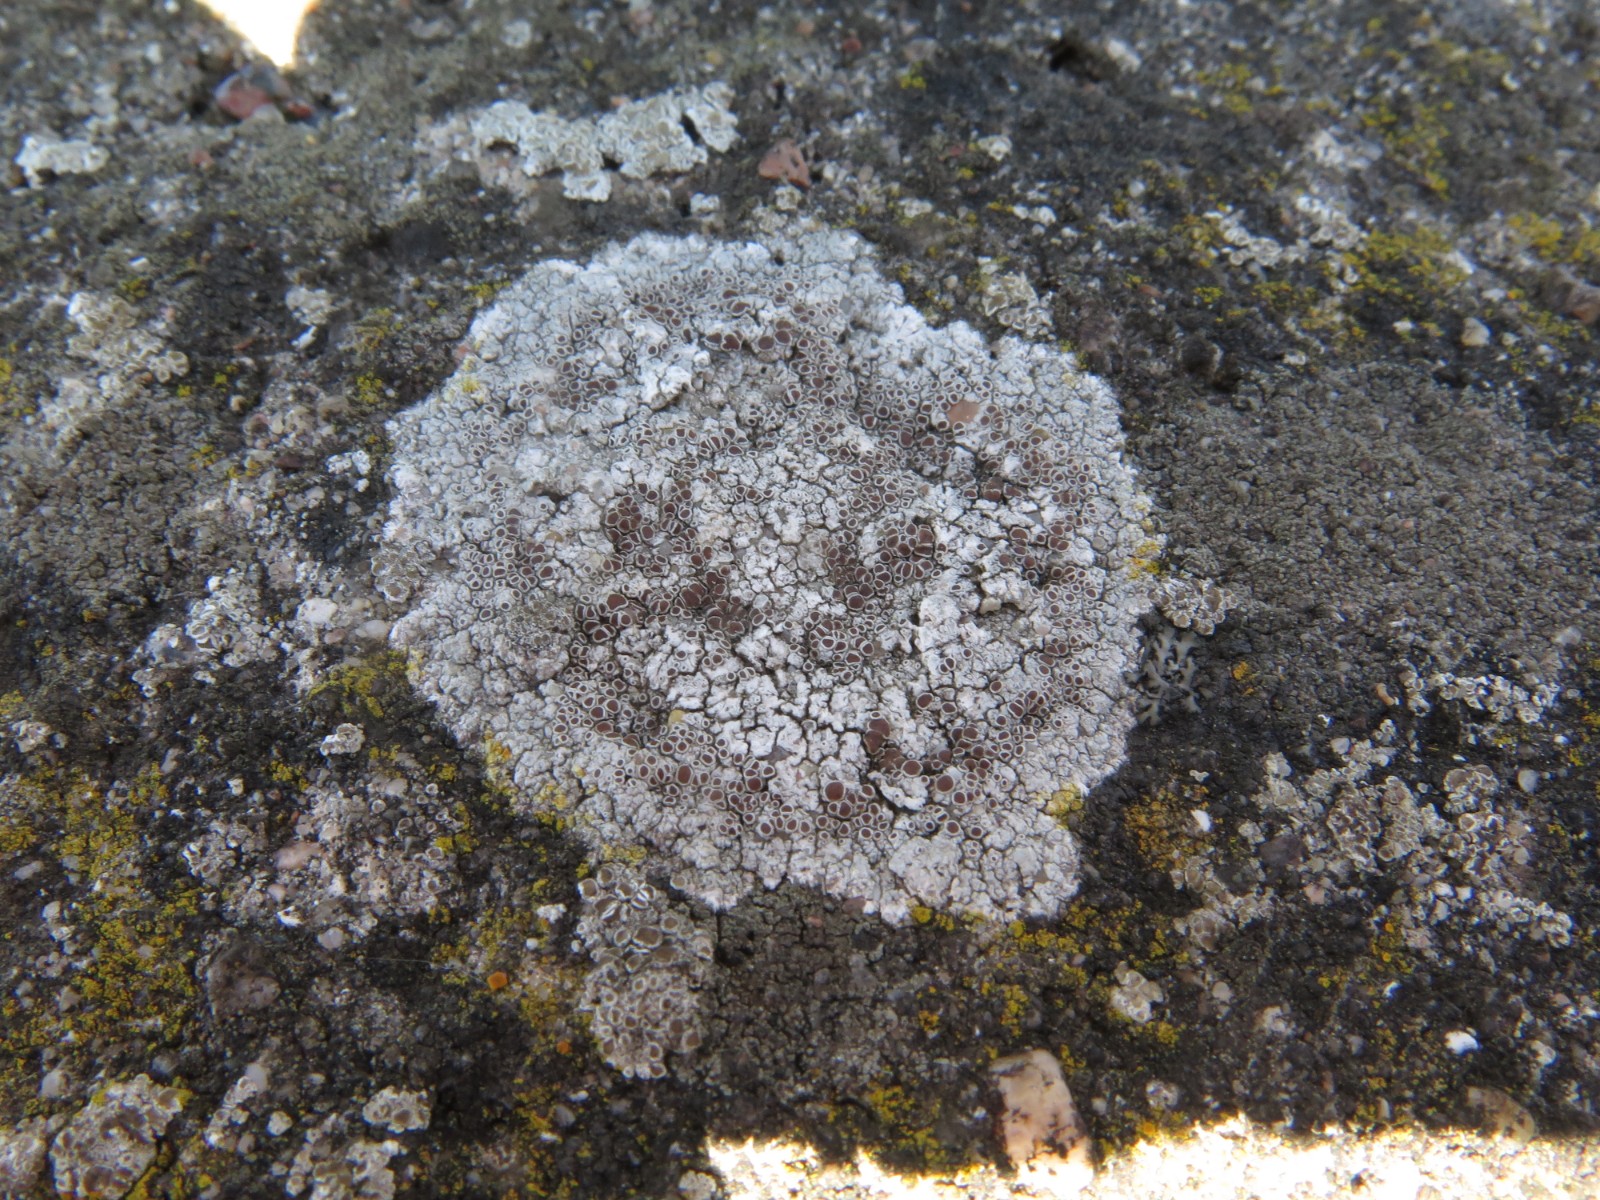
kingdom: Fungi
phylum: Ascomycota
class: Lecanoromycetes
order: Lecanorales
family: Lecanoraceae
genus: Lecanora
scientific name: Lecanora campestris
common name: mur-kantskivelav
